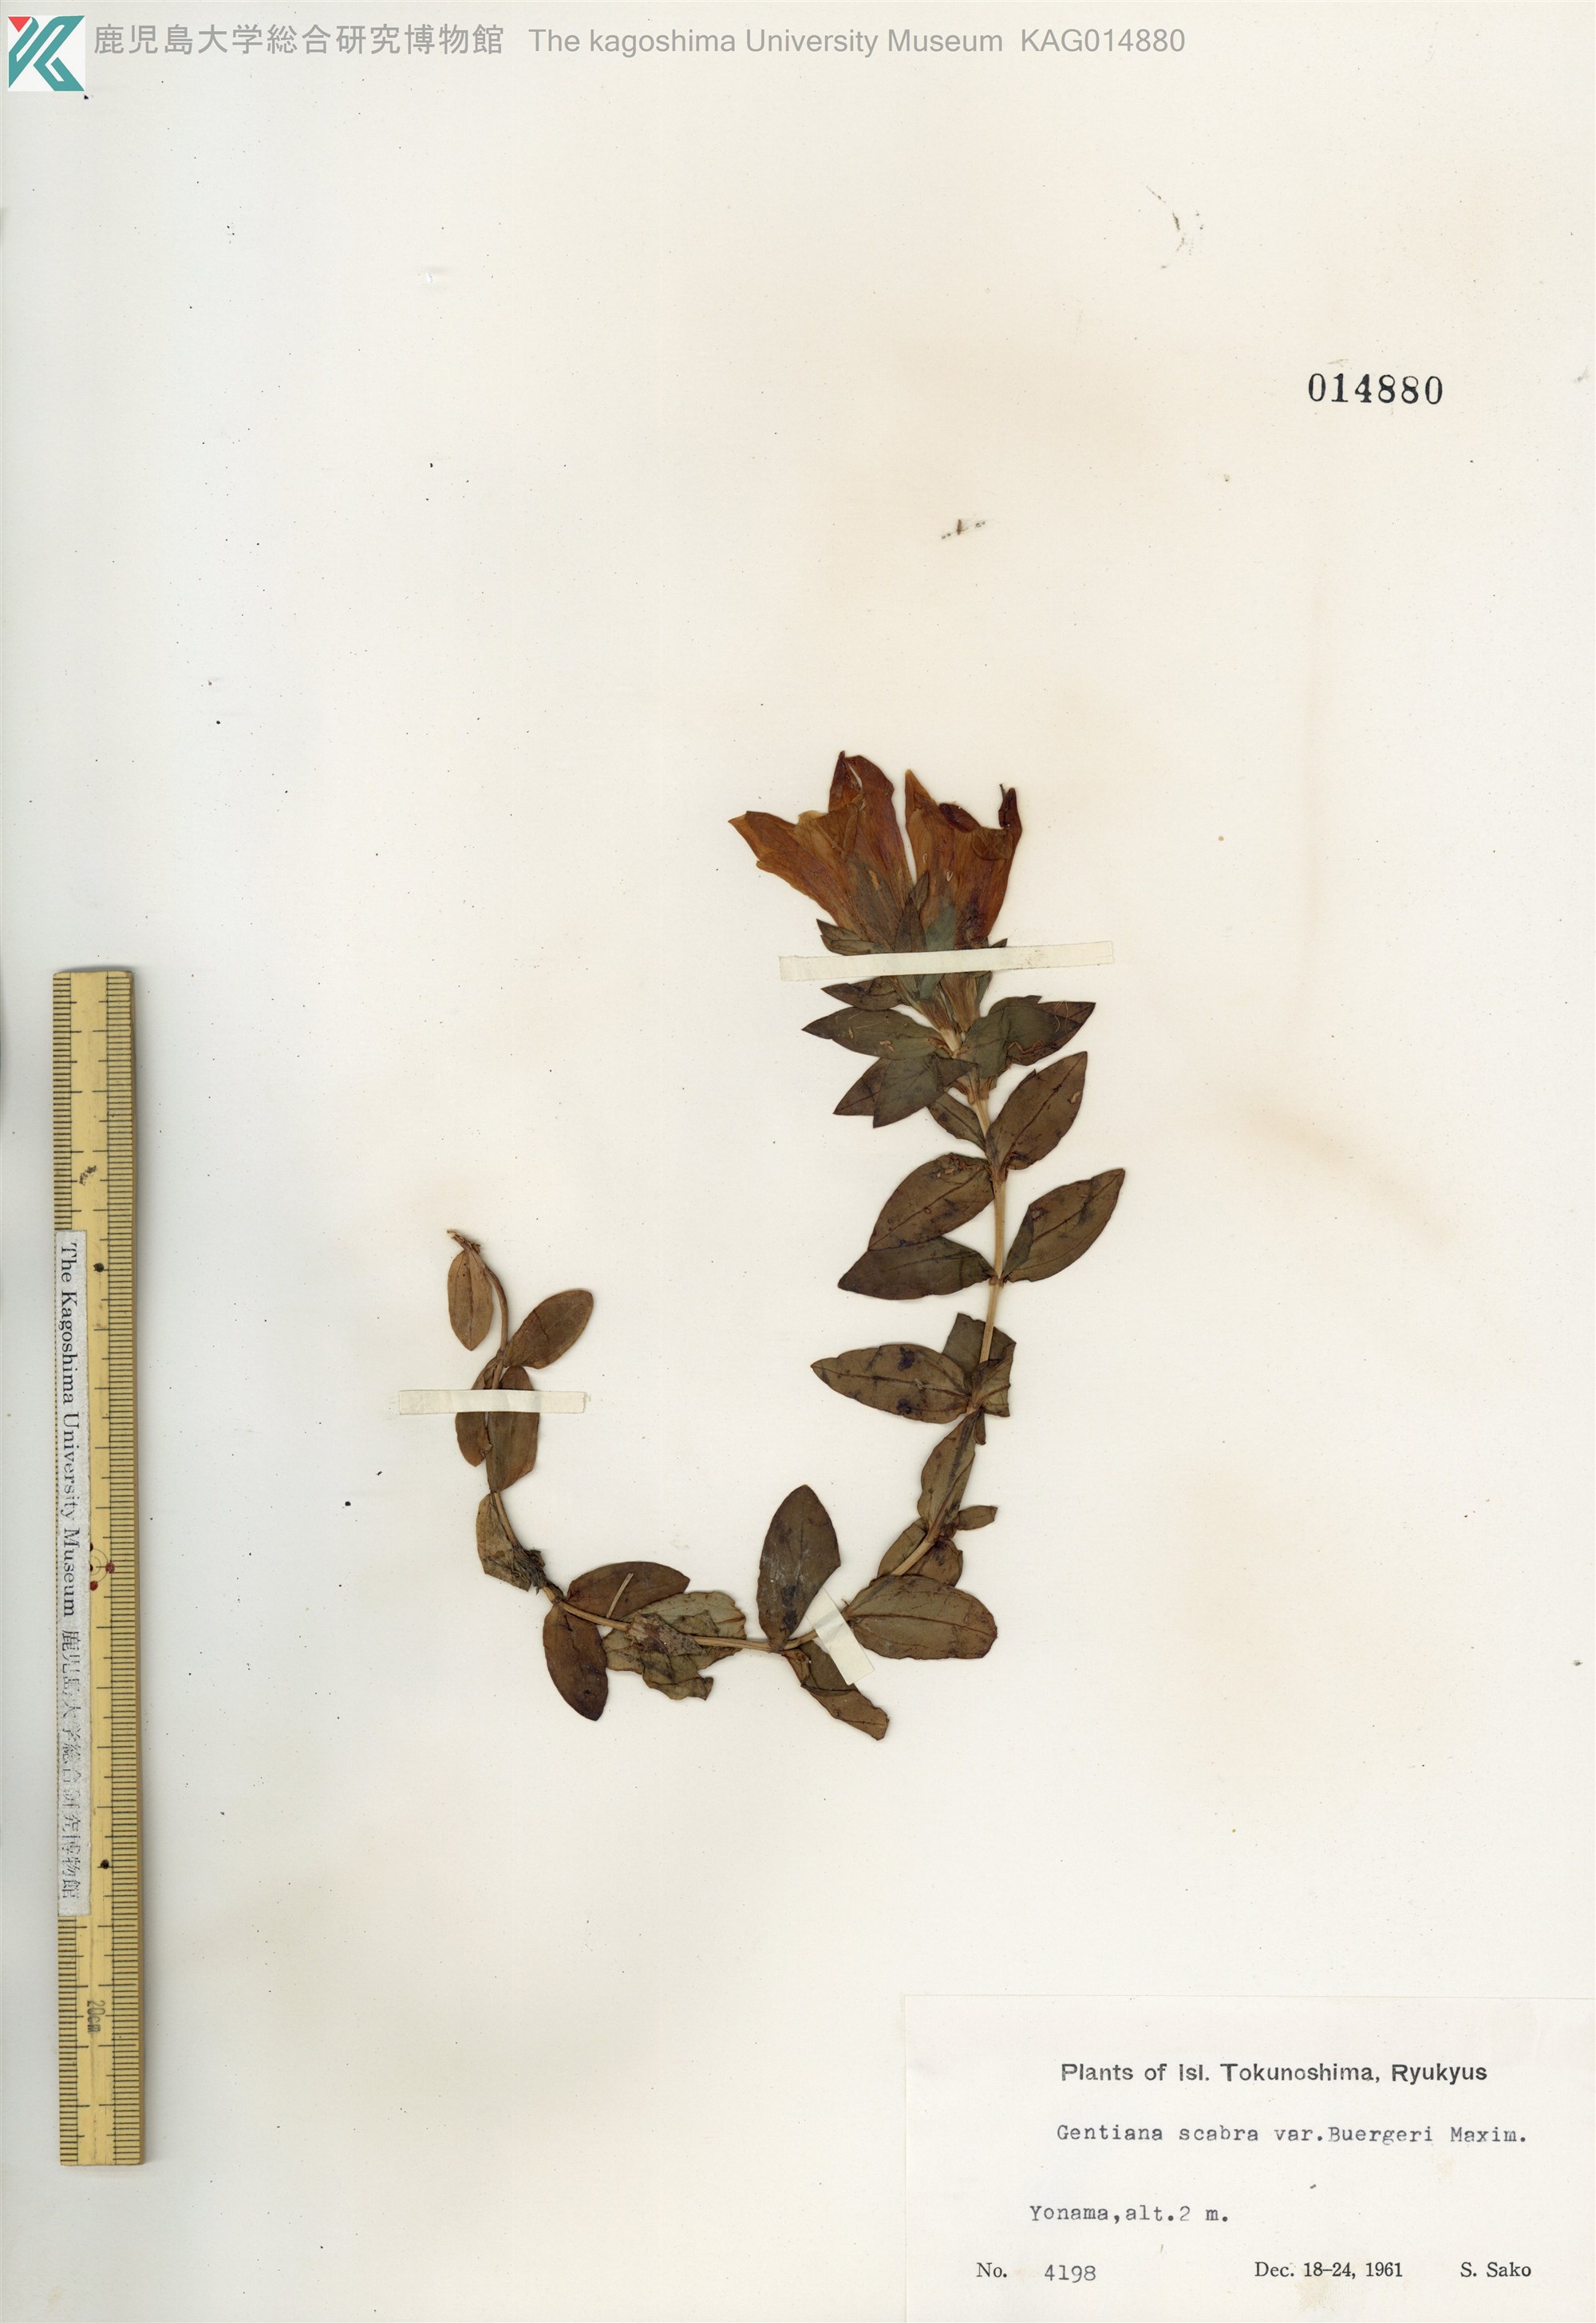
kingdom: Plantae
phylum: Tracheophyta
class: Magnoliopsida
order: Gentianales
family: Gentianaceae
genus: Gentiana
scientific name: Gentiana scabra
